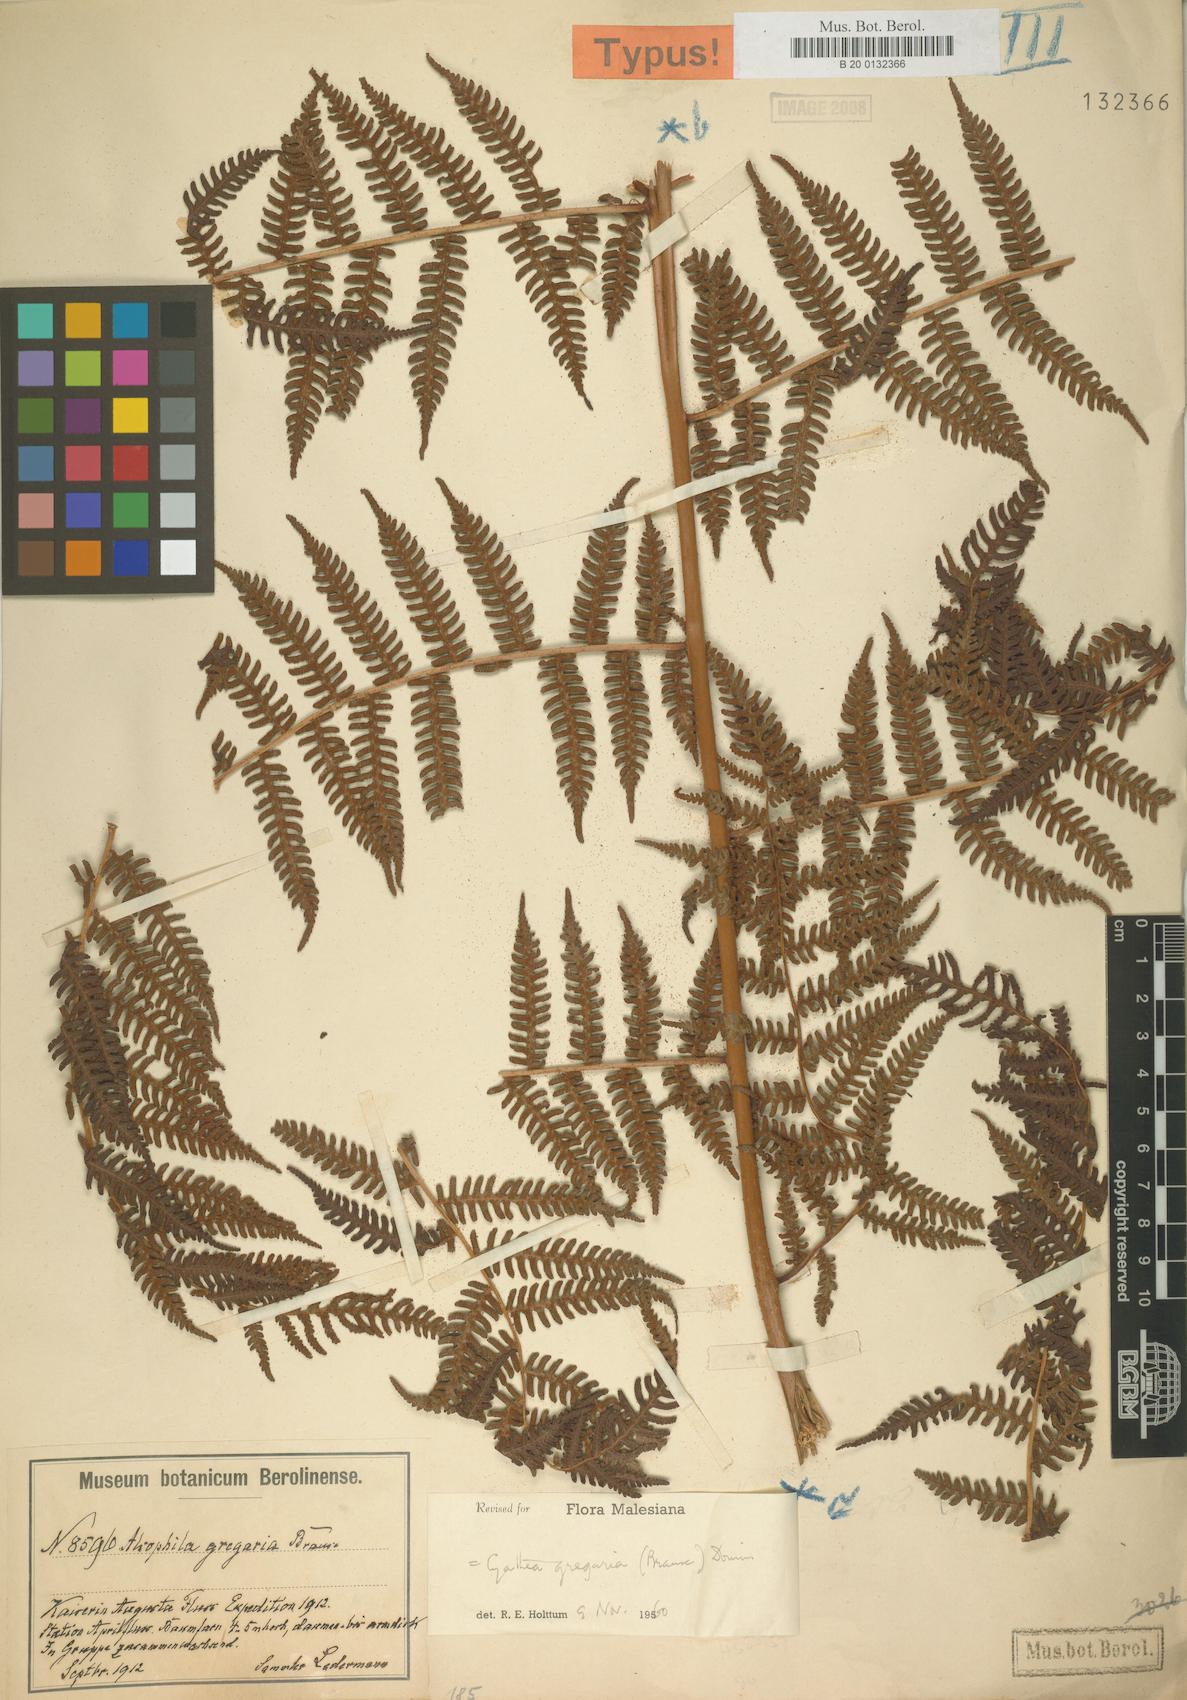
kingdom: Plantae
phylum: Tracheophyta
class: Polypodiopsida
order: Cyatheales
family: Cyatheaceae
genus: Alsophila
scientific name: Alsophila gregaria
